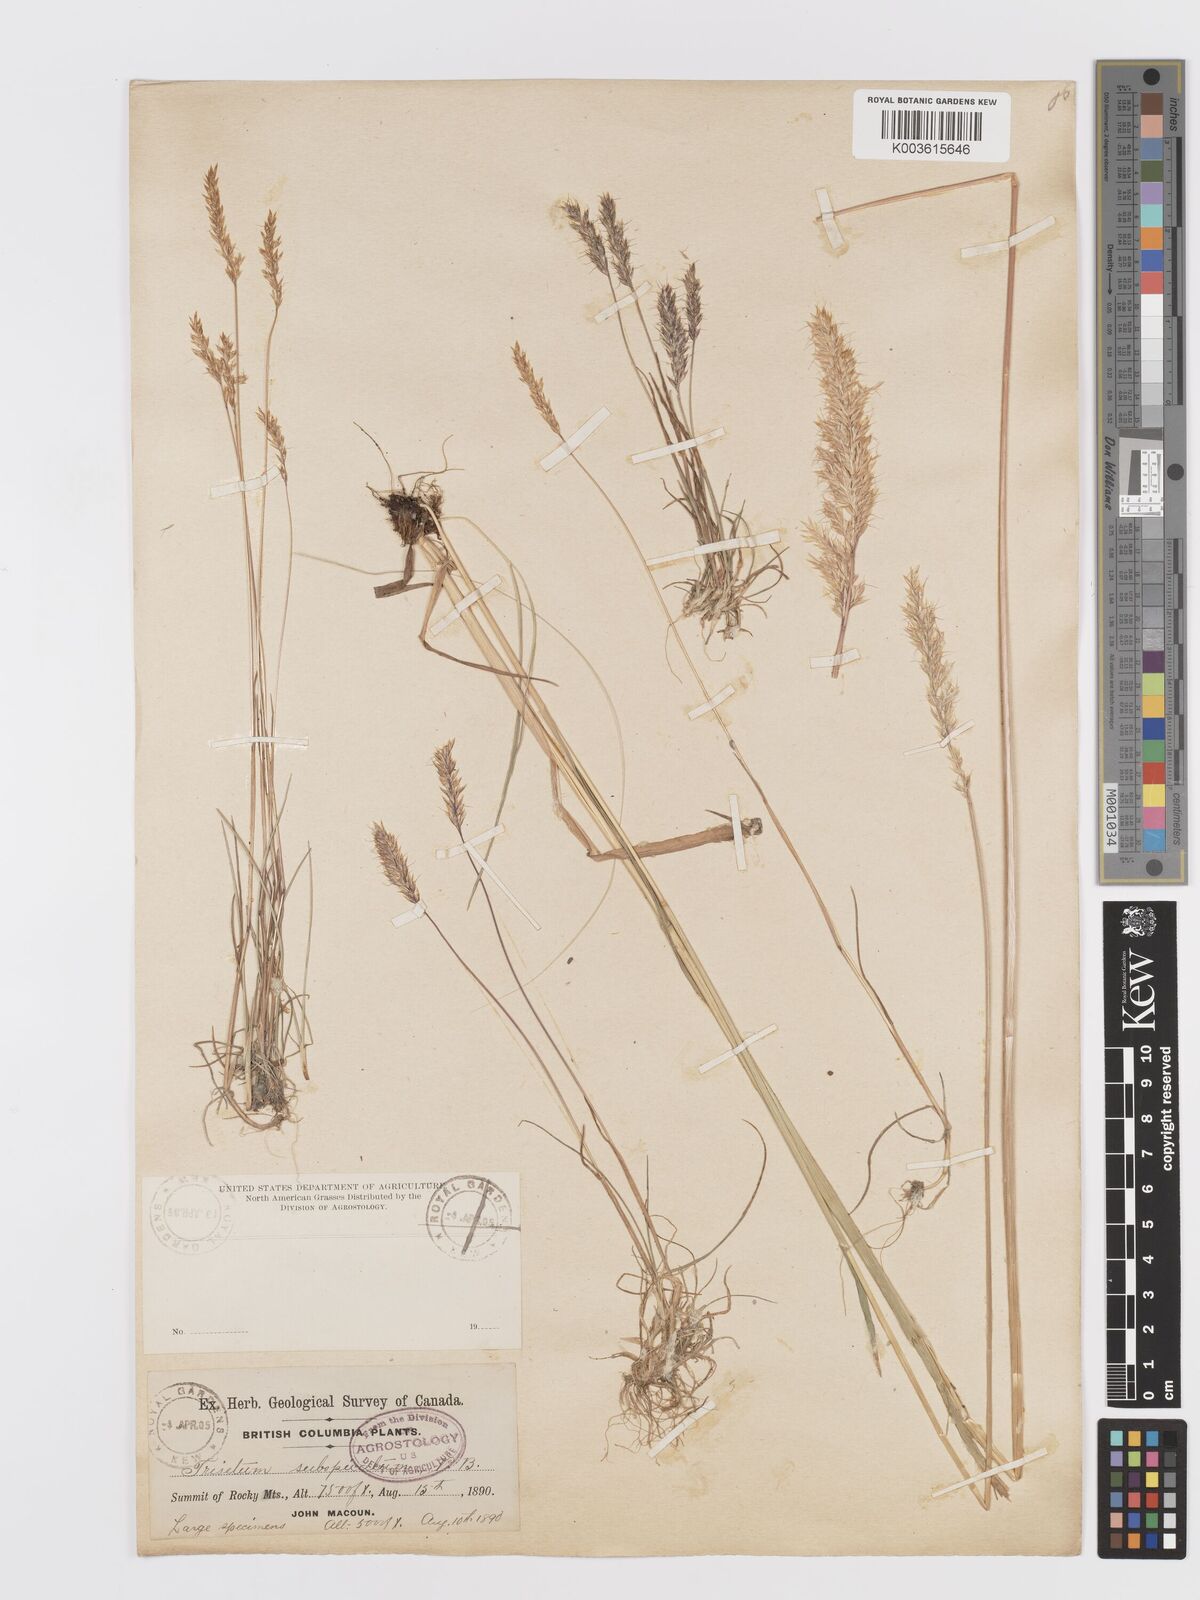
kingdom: Plantae
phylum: Tracheophyta
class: Liliopsida
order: Poales
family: Poaceae
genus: Koeleria
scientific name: Koeleria spicata
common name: Mountain trisetum
